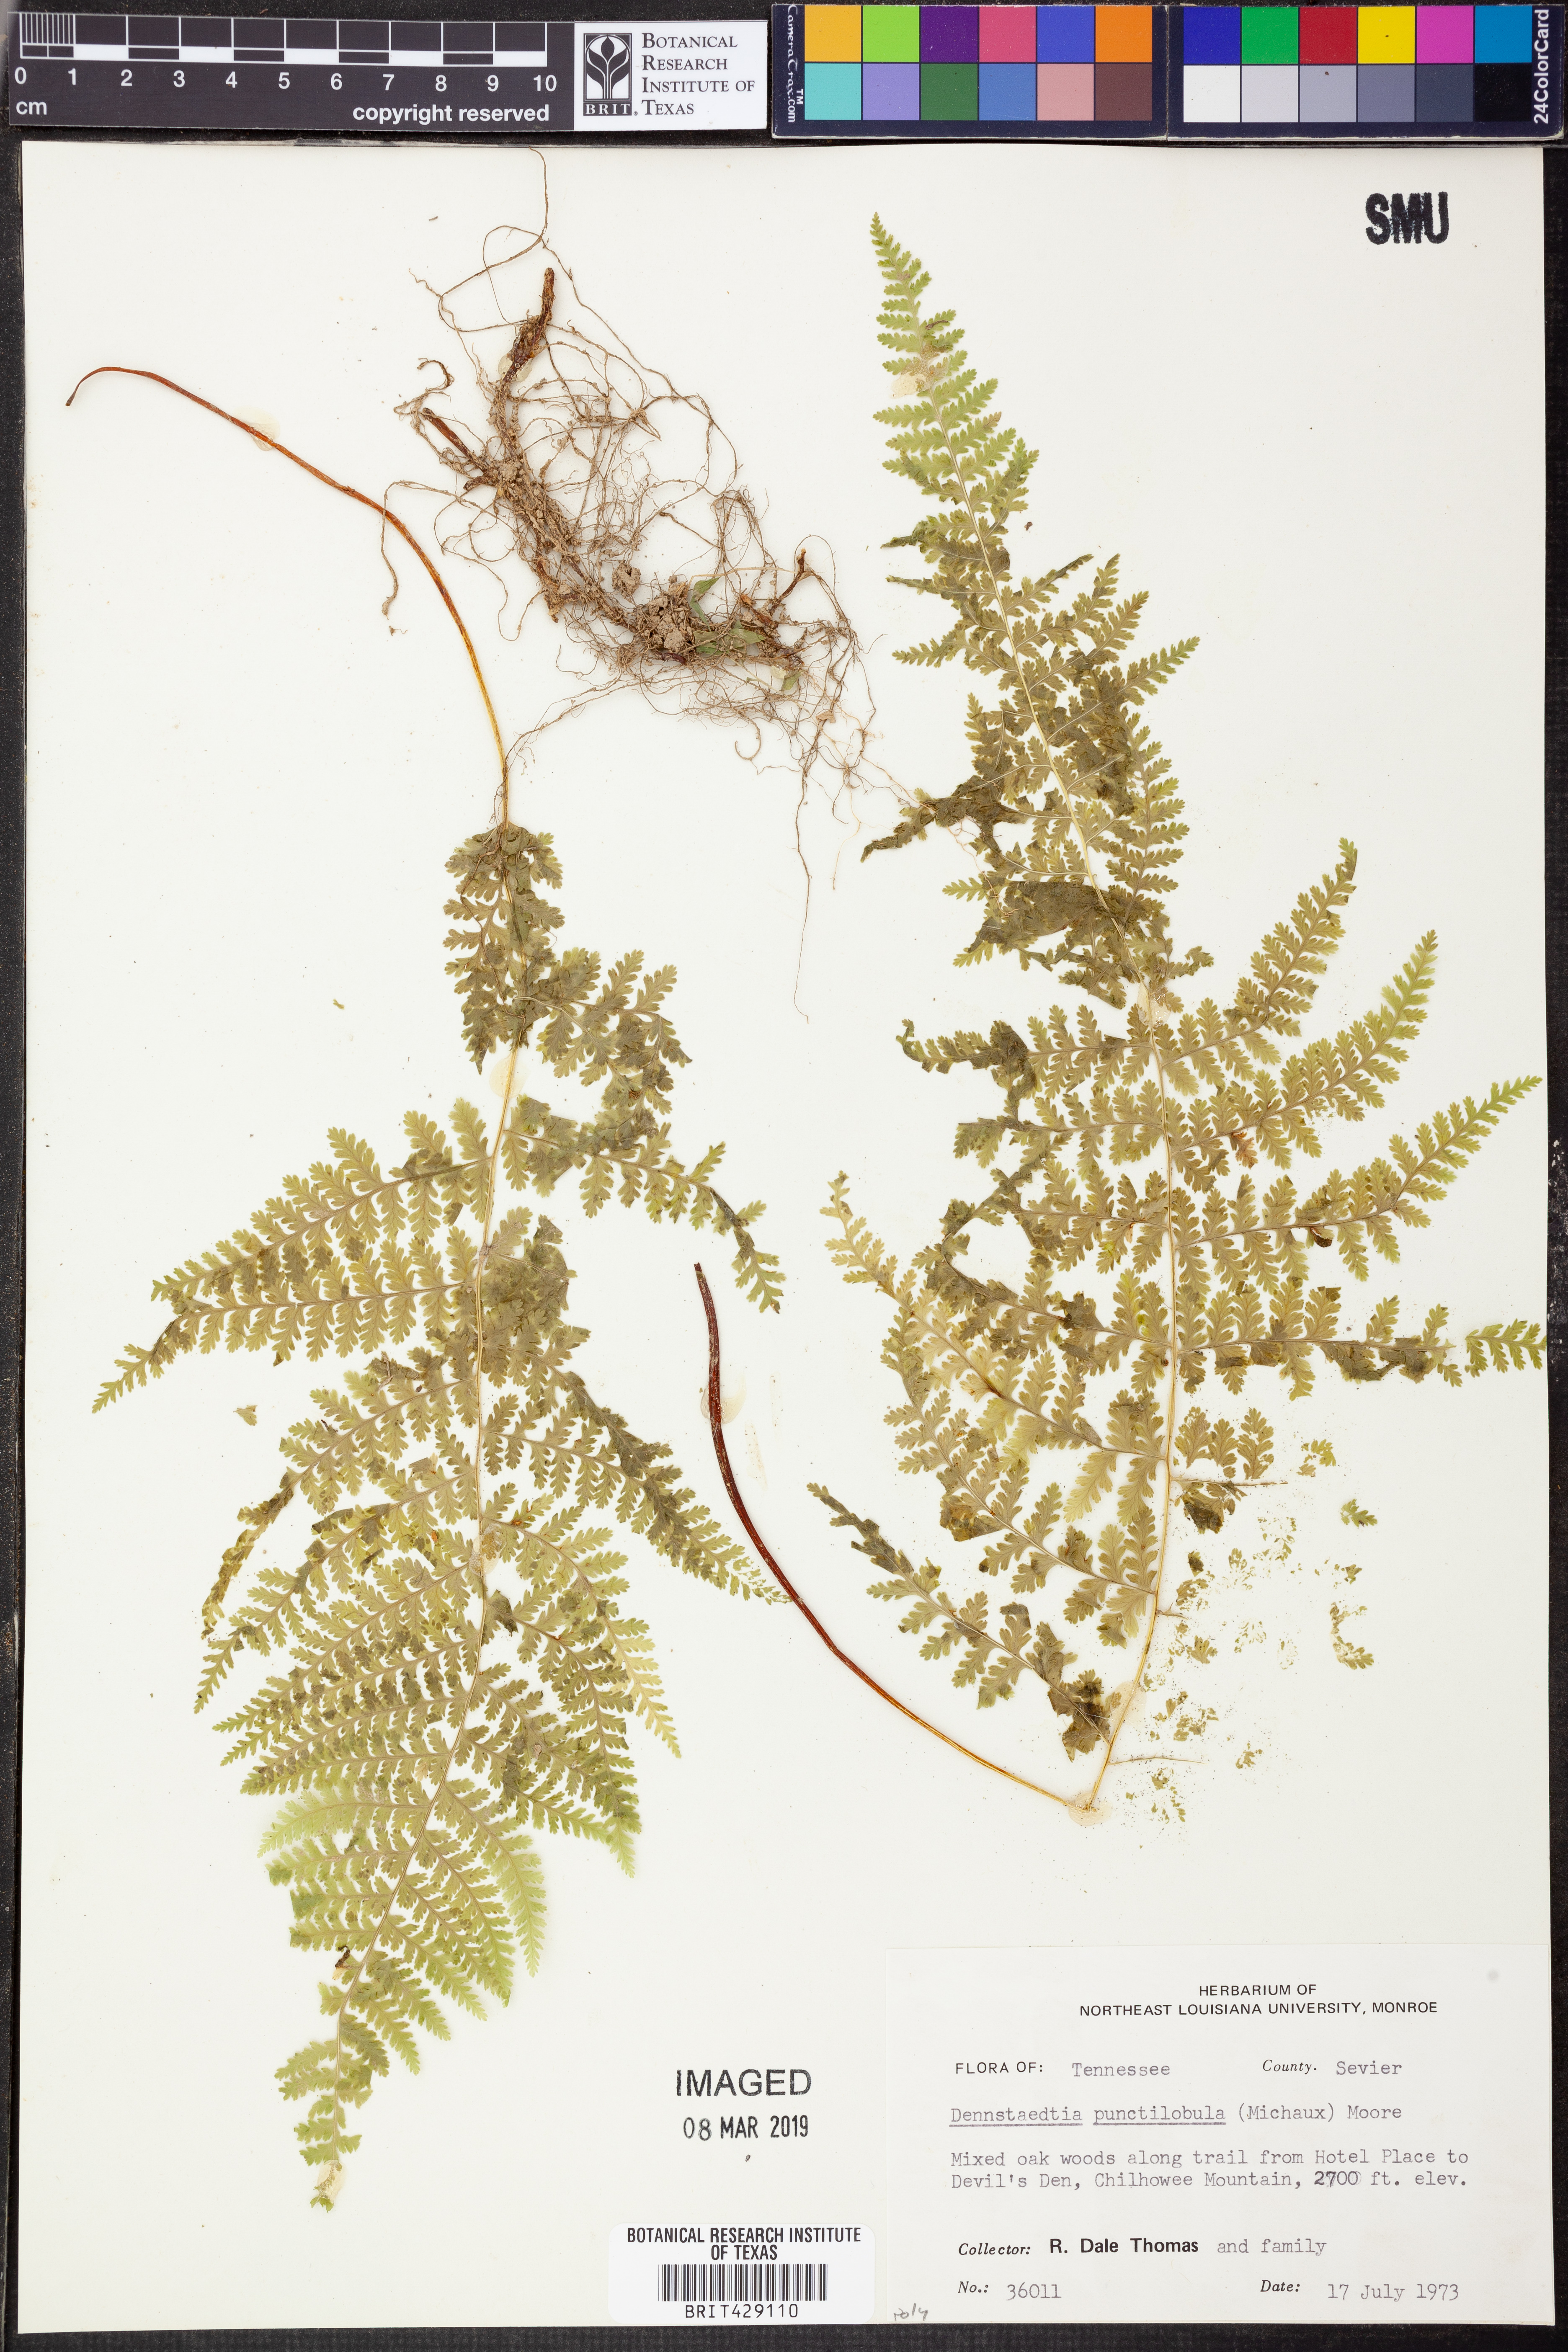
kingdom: Plantae
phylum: Tracheophyta
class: Polypodiopsida
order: Polypodiales
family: Dennstaedtiaceae
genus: Sitobolium
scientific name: Sitobolium punctilobum
